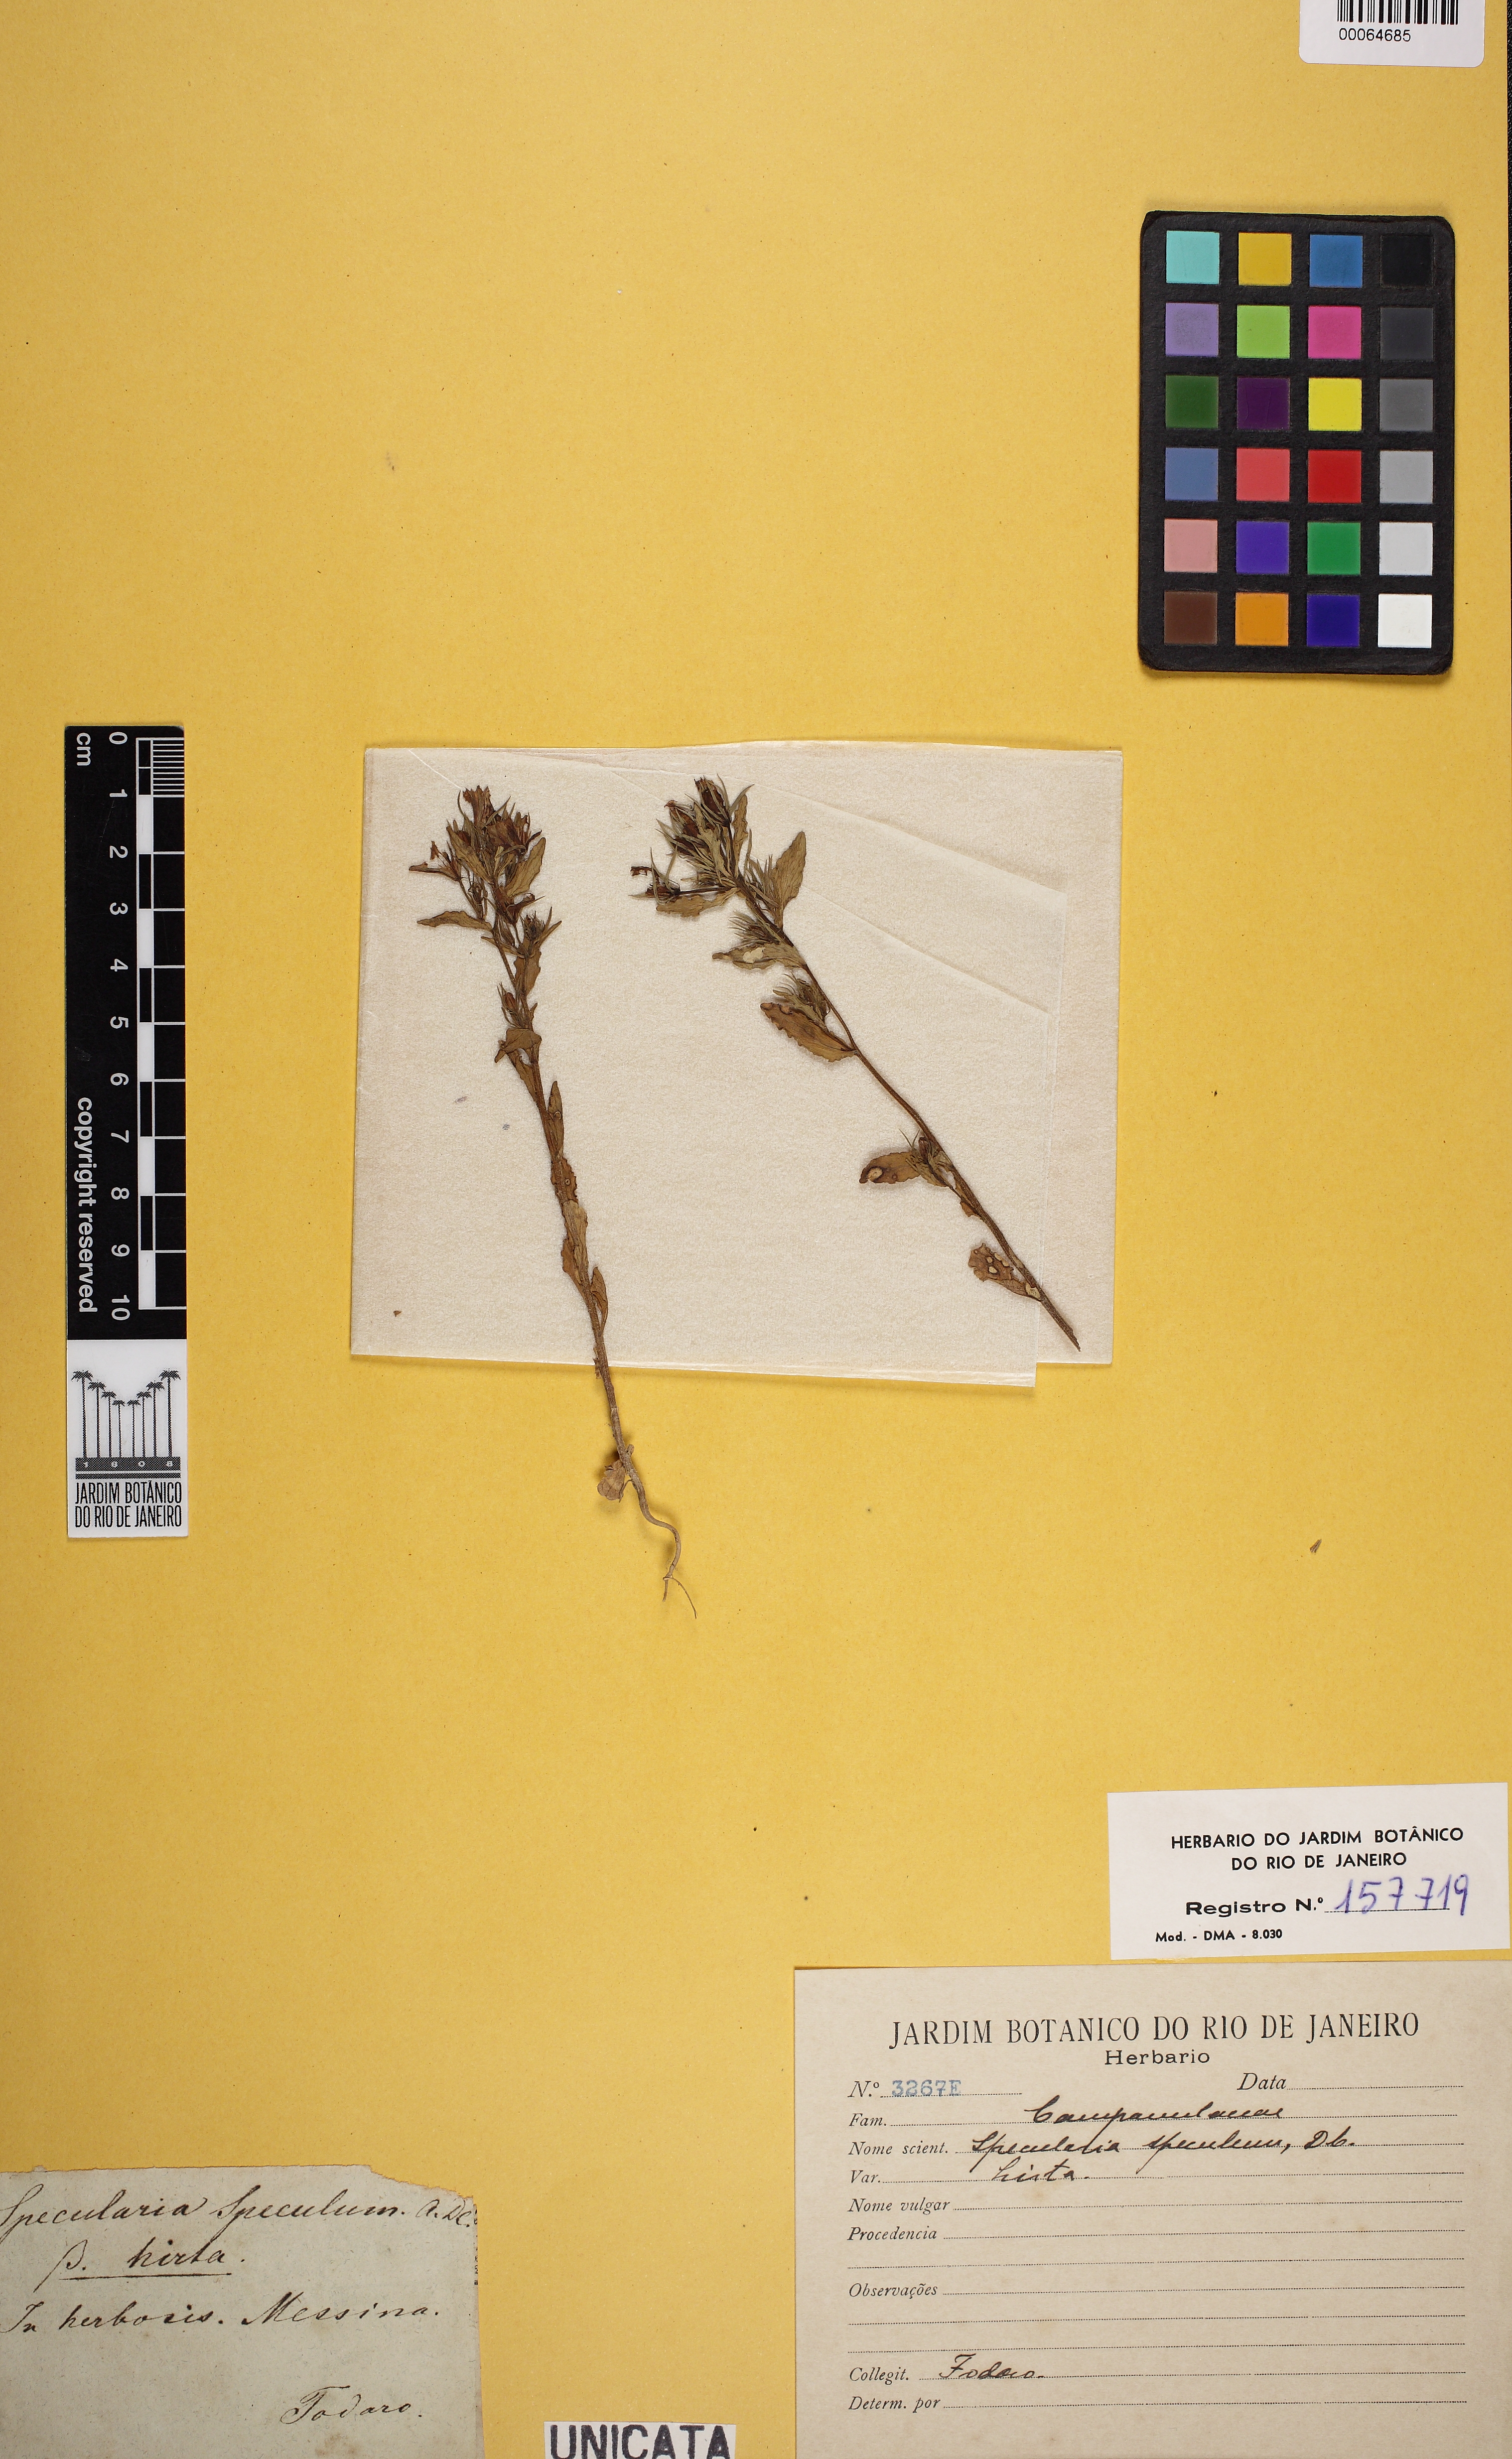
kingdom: Plantae
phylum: Tracheophyta
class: Magnoliopsida
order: Asterales
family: Campanulaceae
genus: Campanula
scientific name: Campanula speculum
